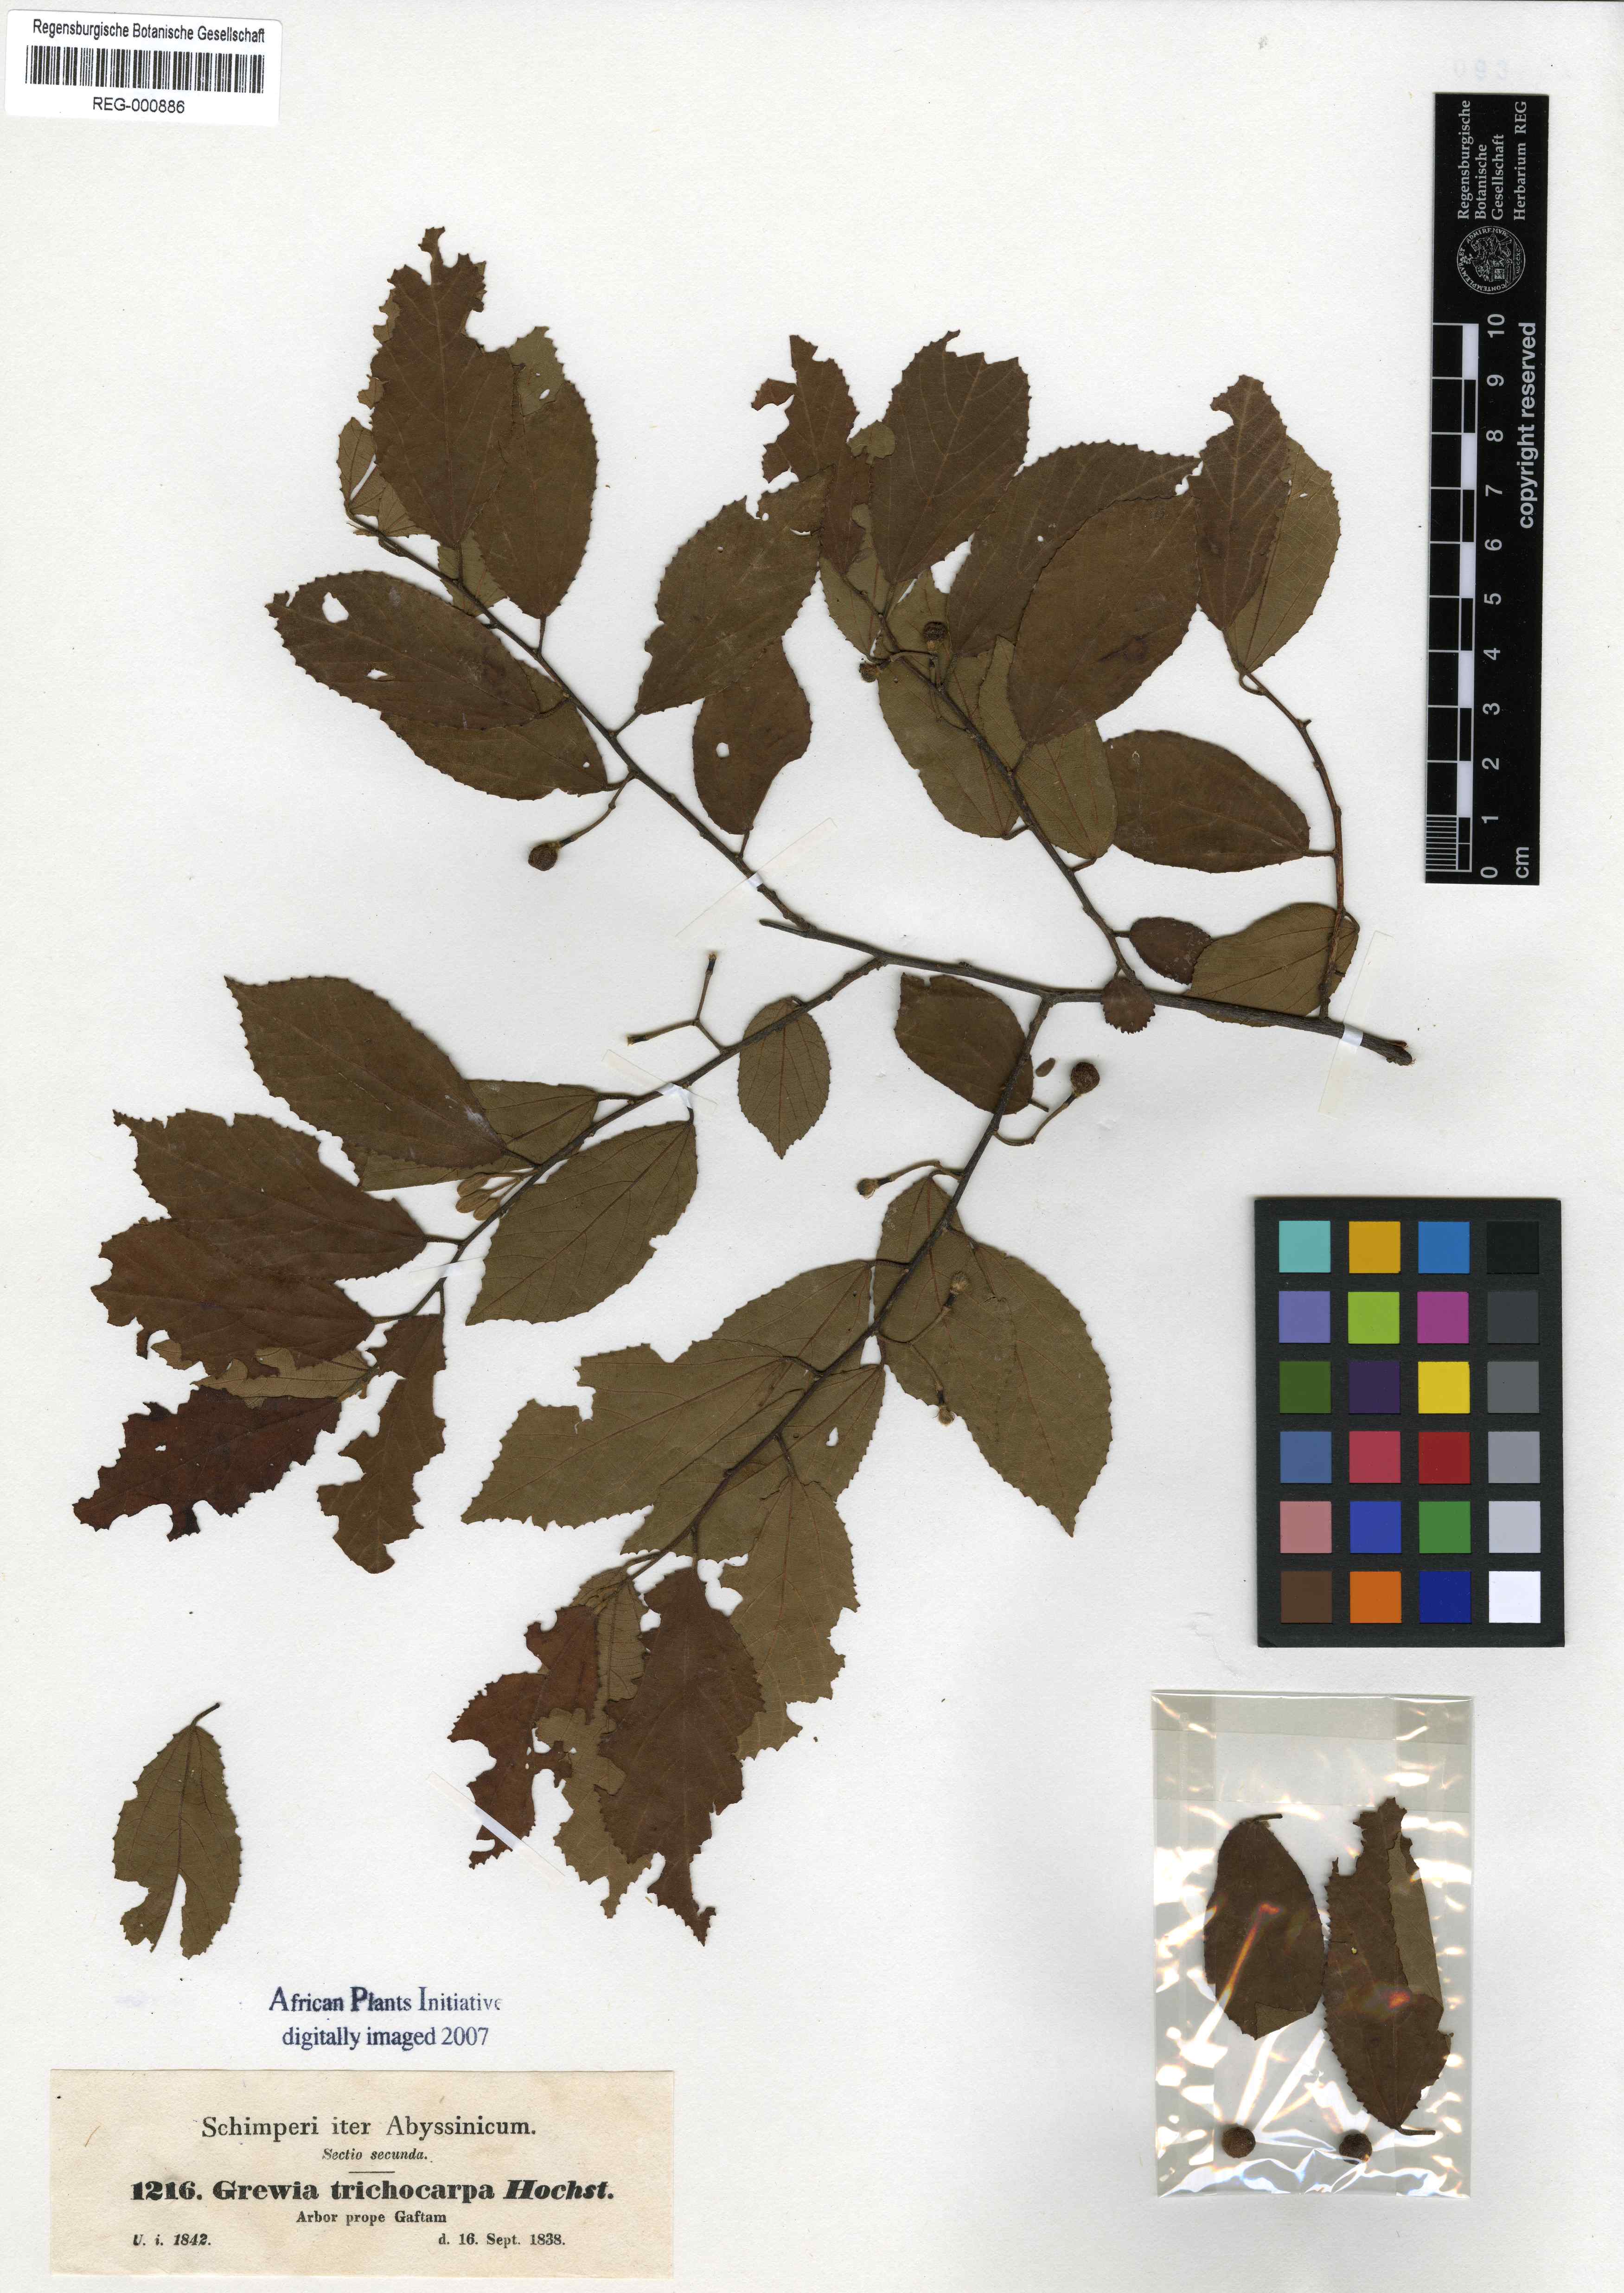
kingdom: Plantae
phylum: Tracheophyta
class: Magnoliopsida
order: Malvales
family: Malvaceae
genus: Grewia
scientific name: Grewia trichocarpa
